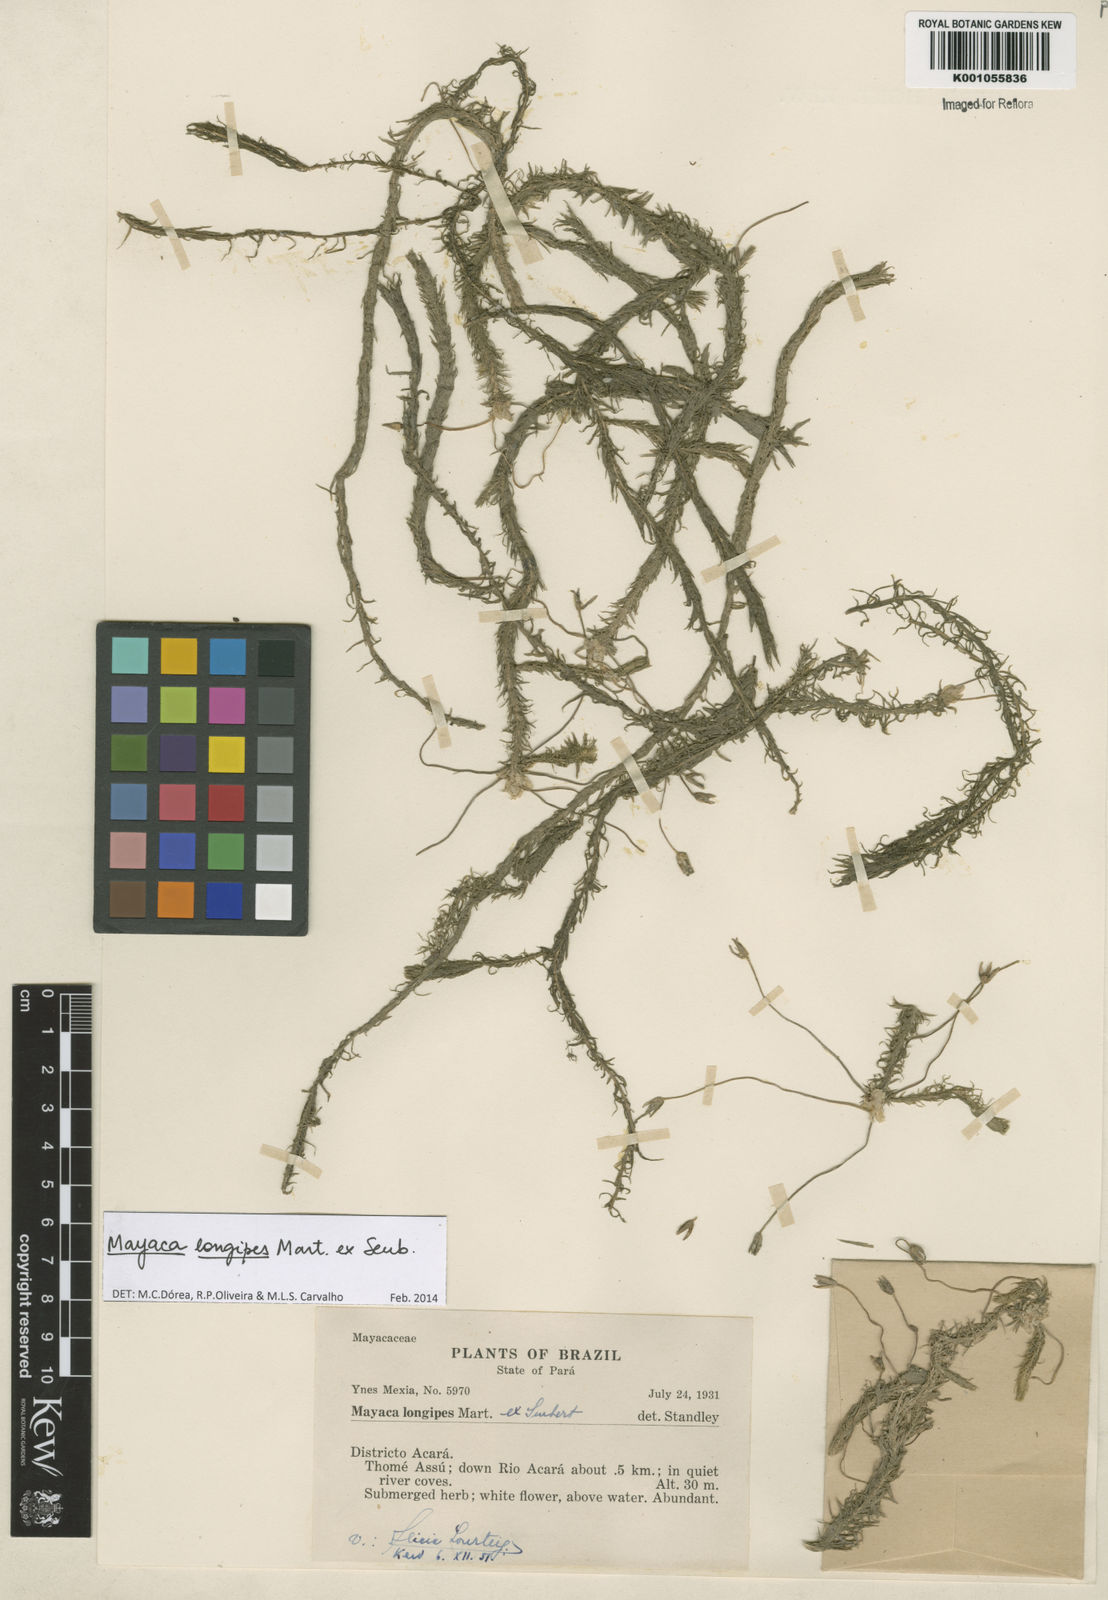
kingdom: Plantae
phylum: Tracheophyta
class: Liliopsida
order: Poales
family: Mayacaceae
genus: Mayaca
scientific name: Mayaca longipes
